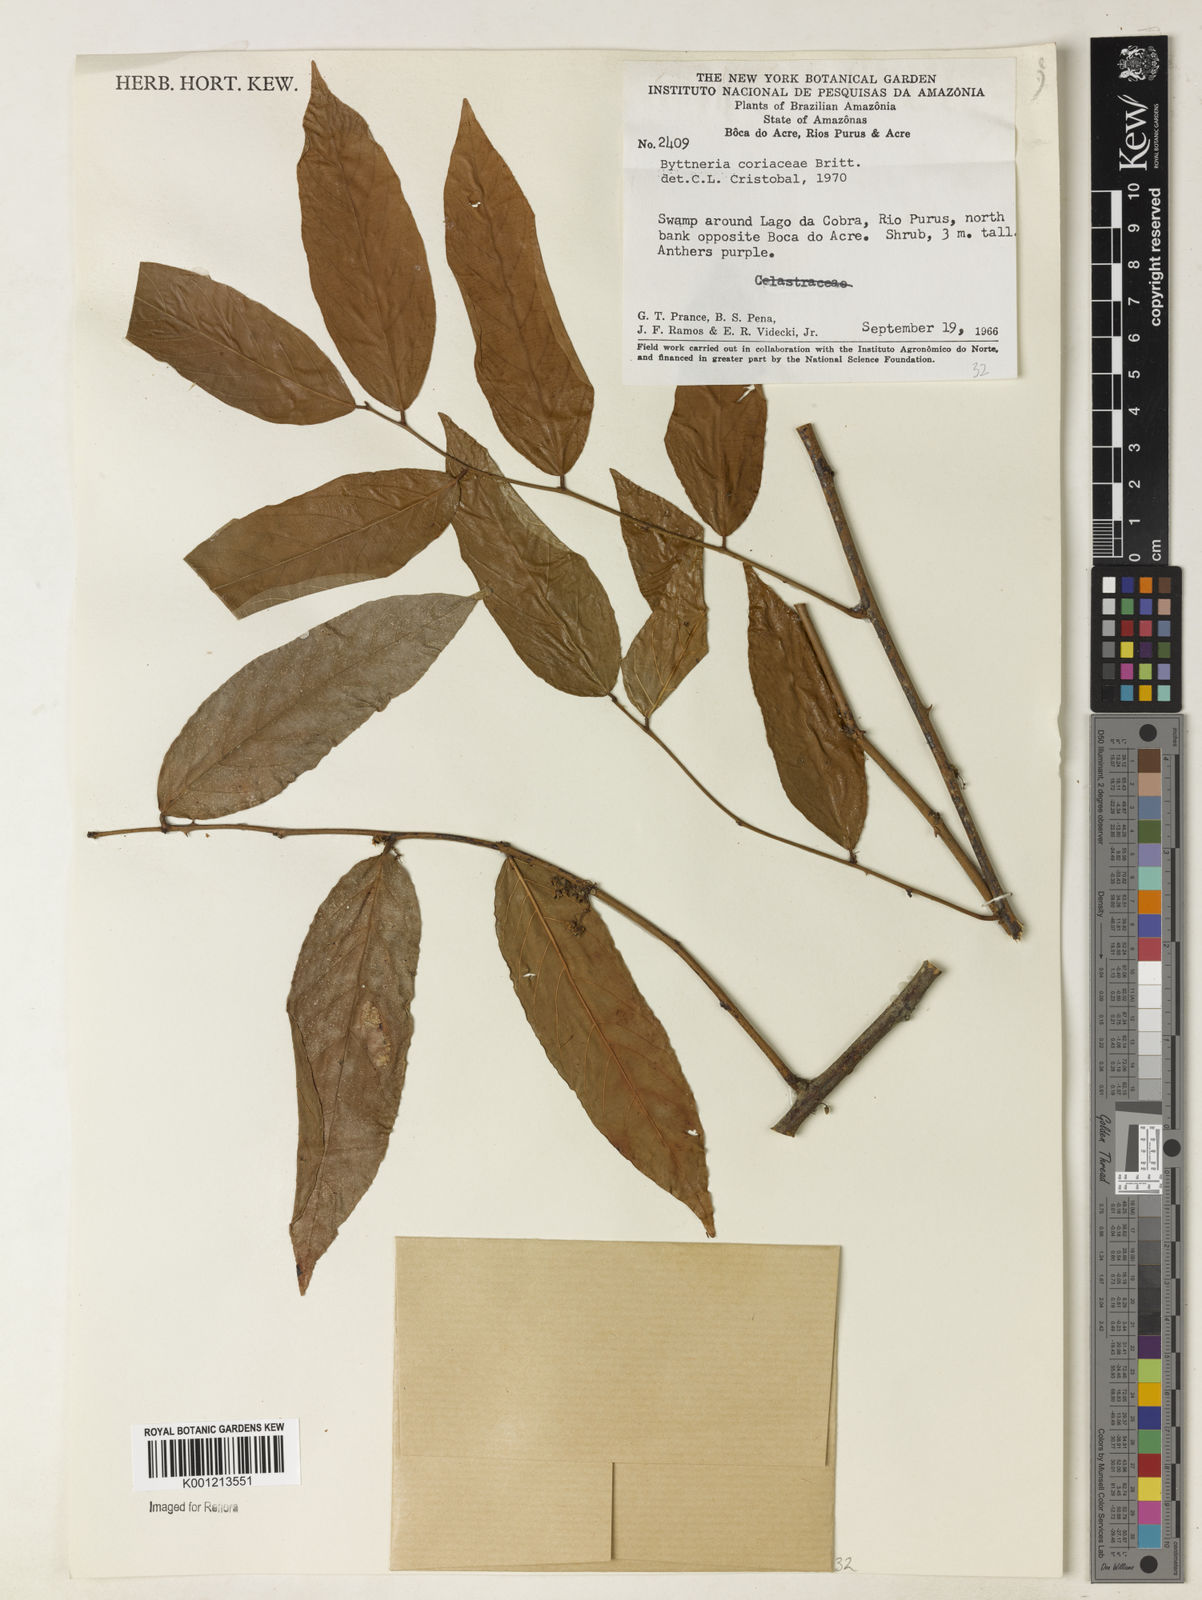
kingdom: Plantae
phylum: Tracheophyta
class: Magnoliopsida
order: Malvales
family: Malvaceae
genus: Byttneria
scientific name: Byttneria coriacea
